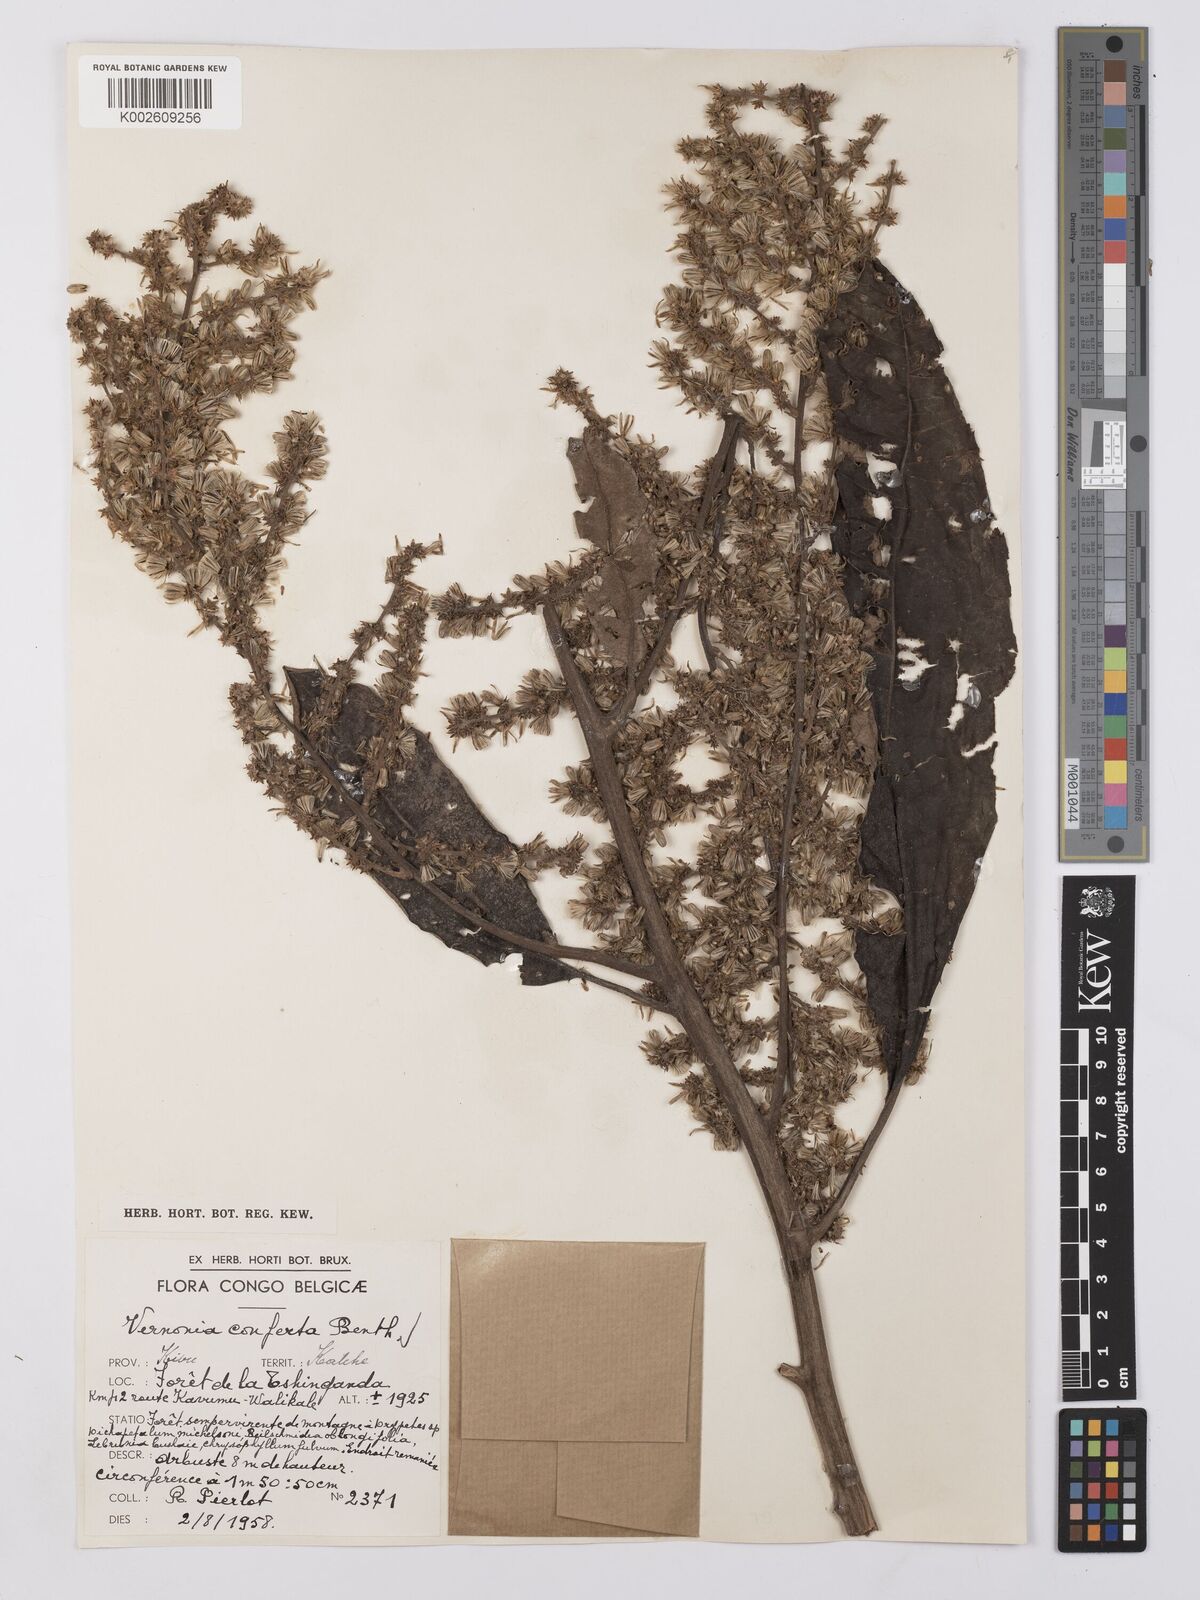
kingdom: Plantae
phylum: Tracheophyta
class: Magnoliopsida
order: Asterales
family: Asteraceae
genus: Monosis
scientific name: Monosis conferta
